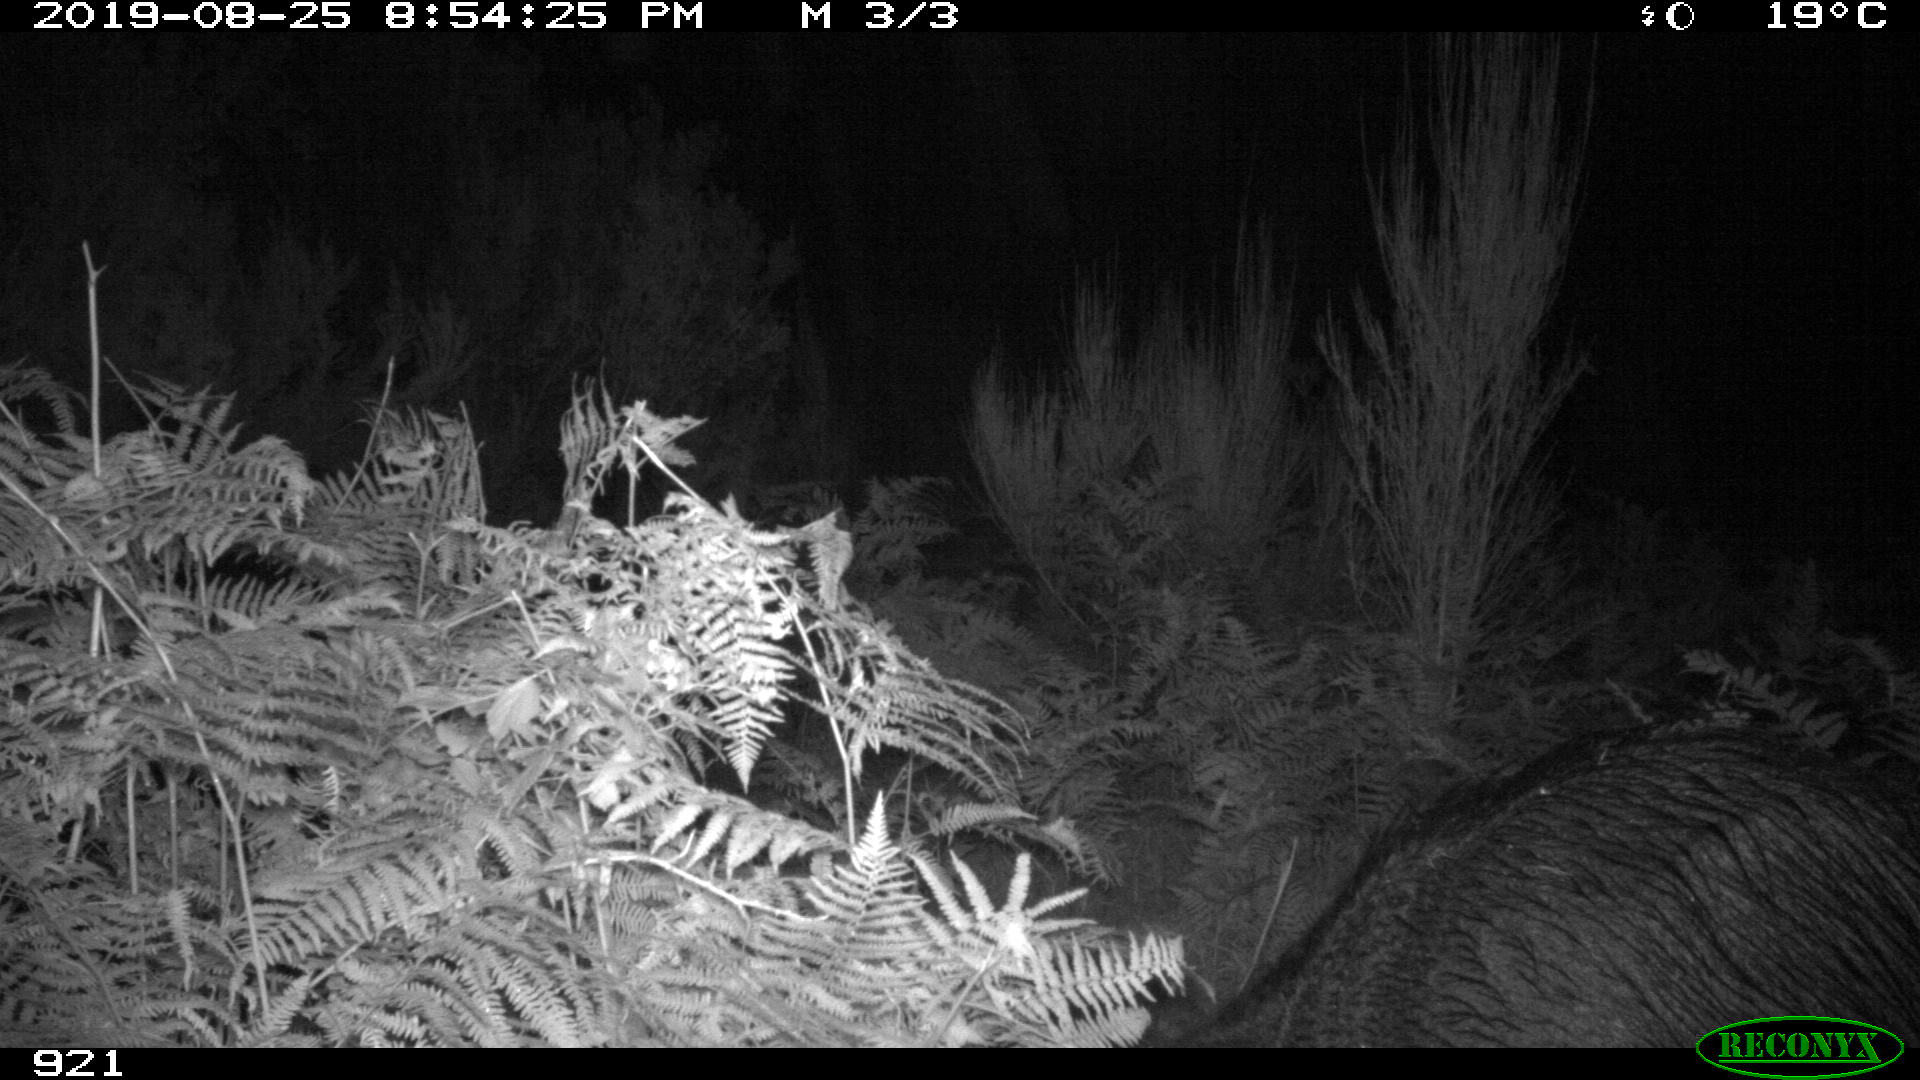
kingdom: Animalia
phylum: Chordata
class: Mammalia
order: Artiodactyla
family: Suidae
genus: Sus
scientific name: Sus scrofa
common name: Wild boar
